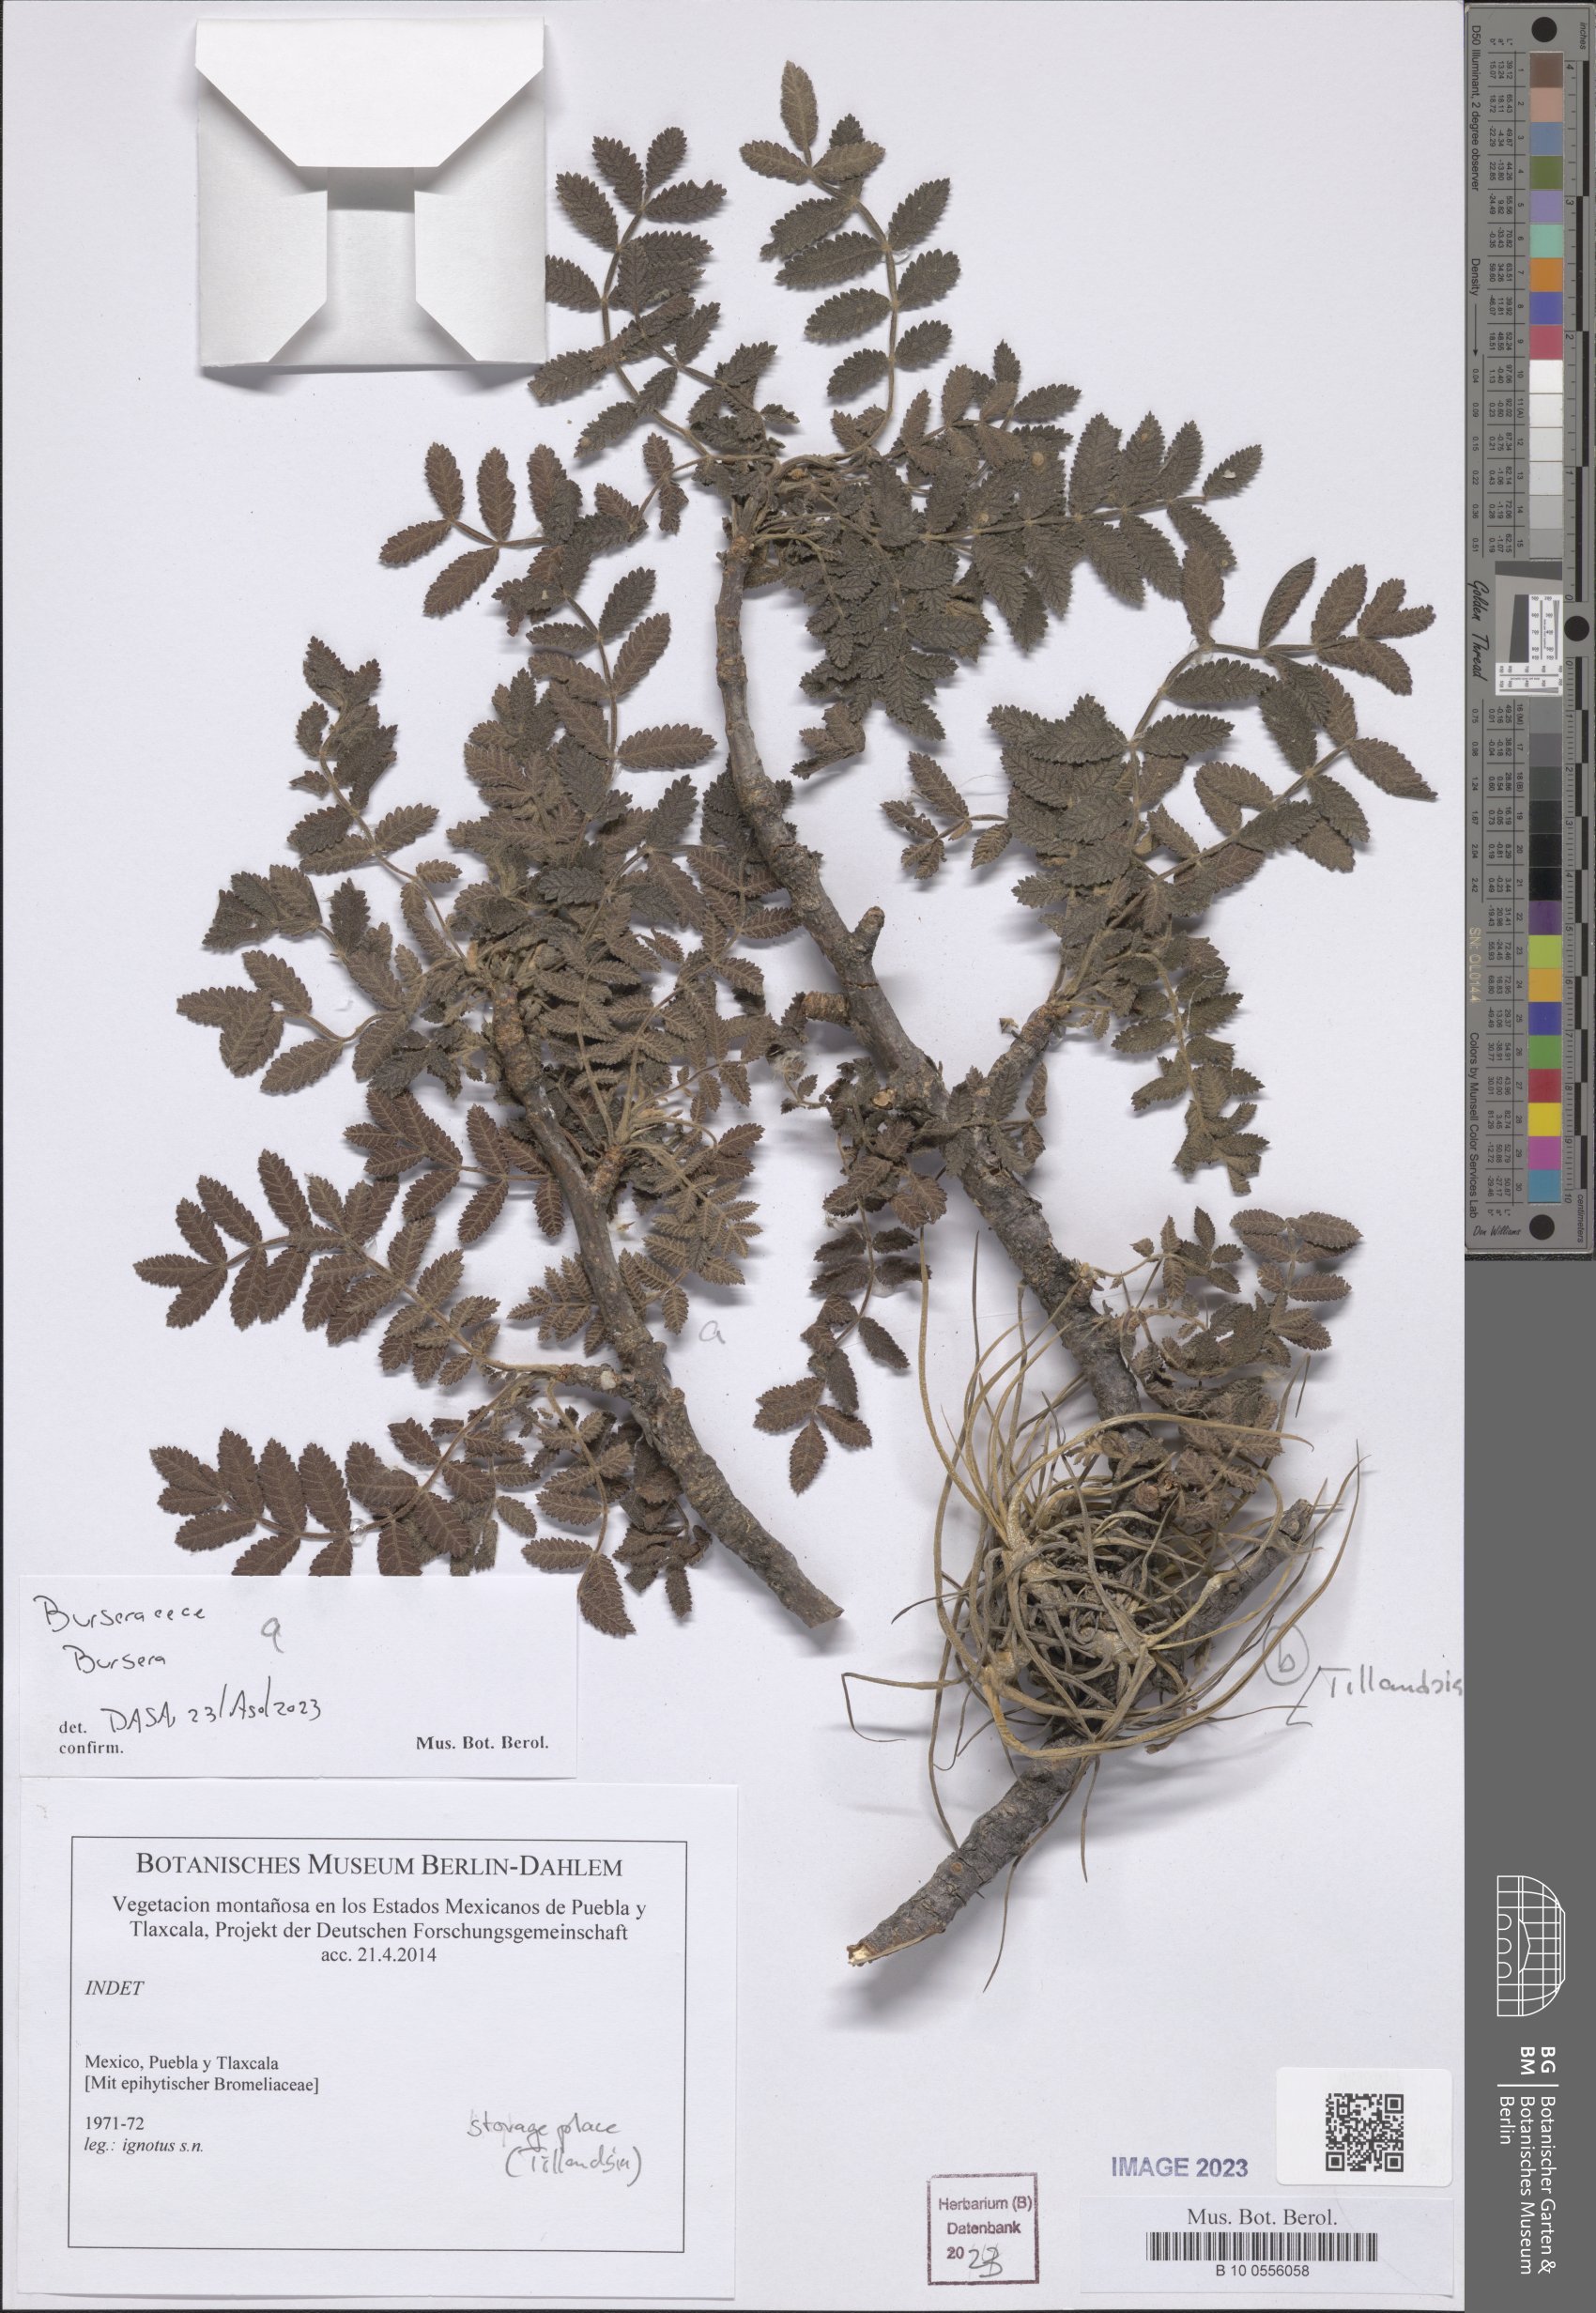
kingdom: Plantae
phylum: Tracheophyta
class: Magnoliopsida
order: Sapindales
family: Burseraceae
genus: Bursera
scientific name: Bursera
